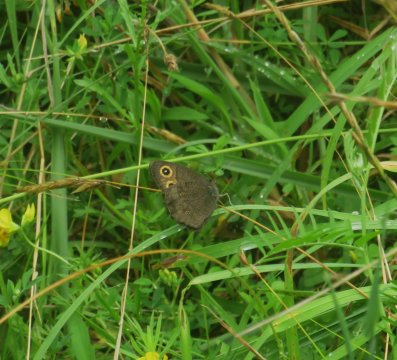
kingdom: Animalia
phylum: Arthropoda
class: Insecta
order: Lepidoptera
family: Nymphalidae
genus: Cercyonis
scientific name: Cercyonis pegala
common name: Common Wood-Nymph
